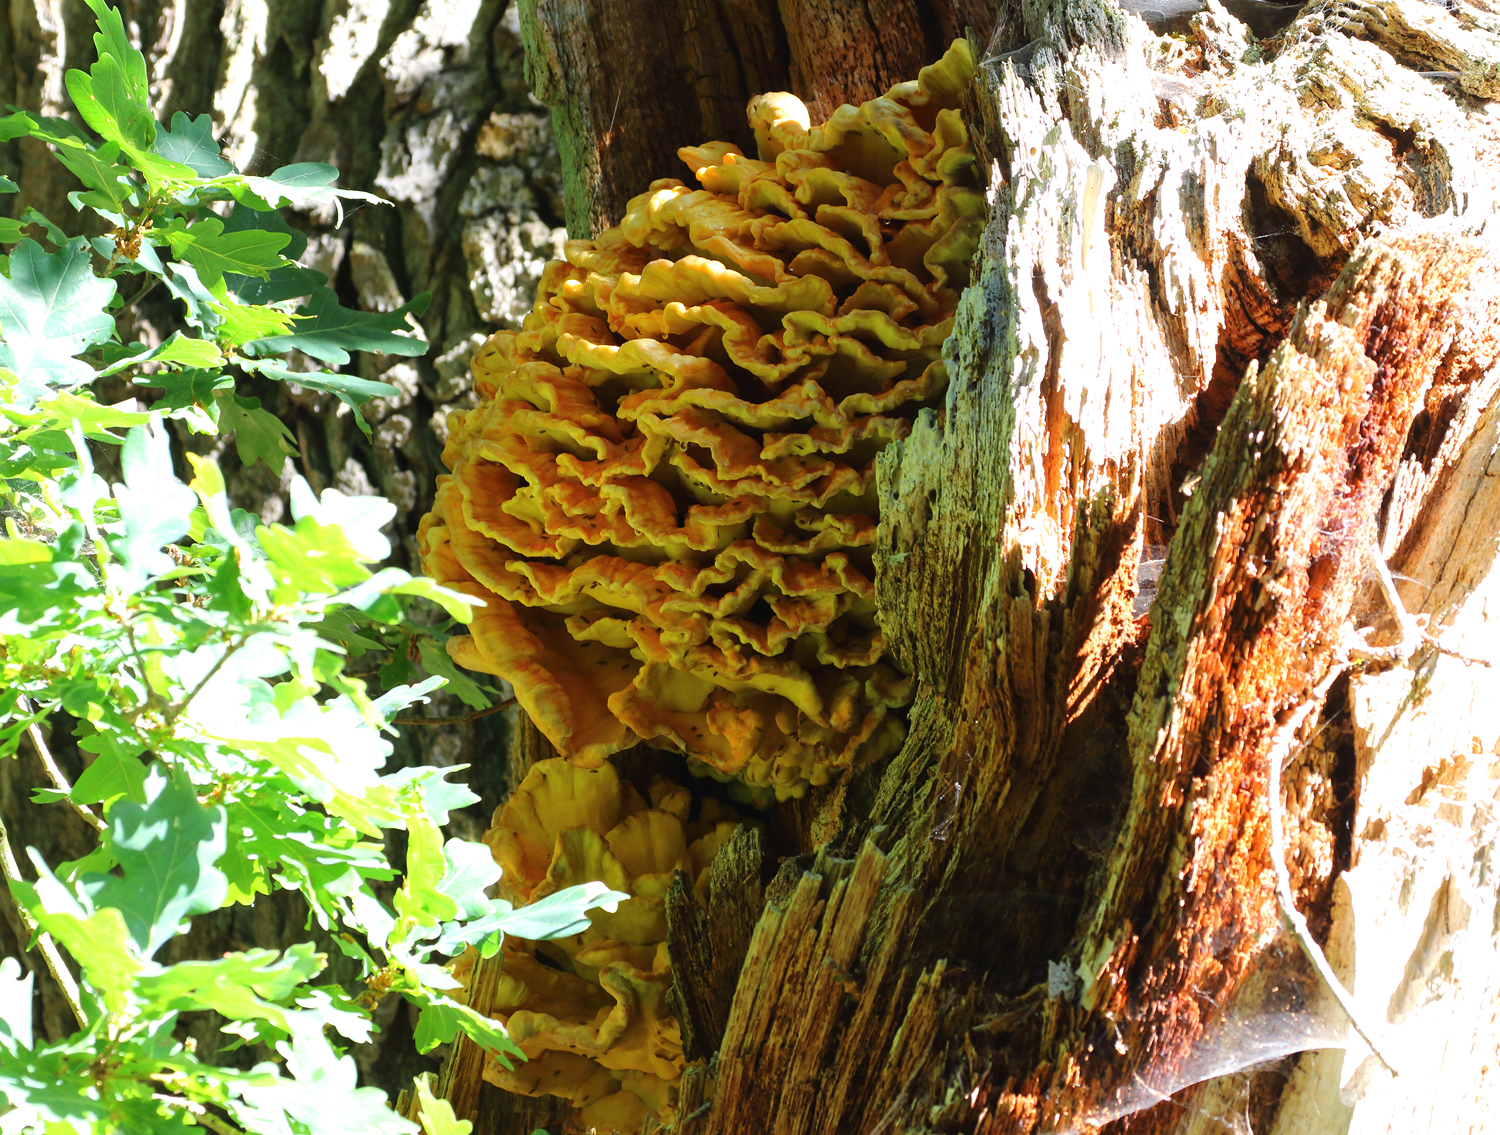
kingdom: Fungi
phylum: Basidiomycota
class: Agaricomycetes
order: Polyporales
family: Laetiporaceae
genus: Laetiporus
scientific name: Laetiporus sulphureus
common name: svovlporesvamp
